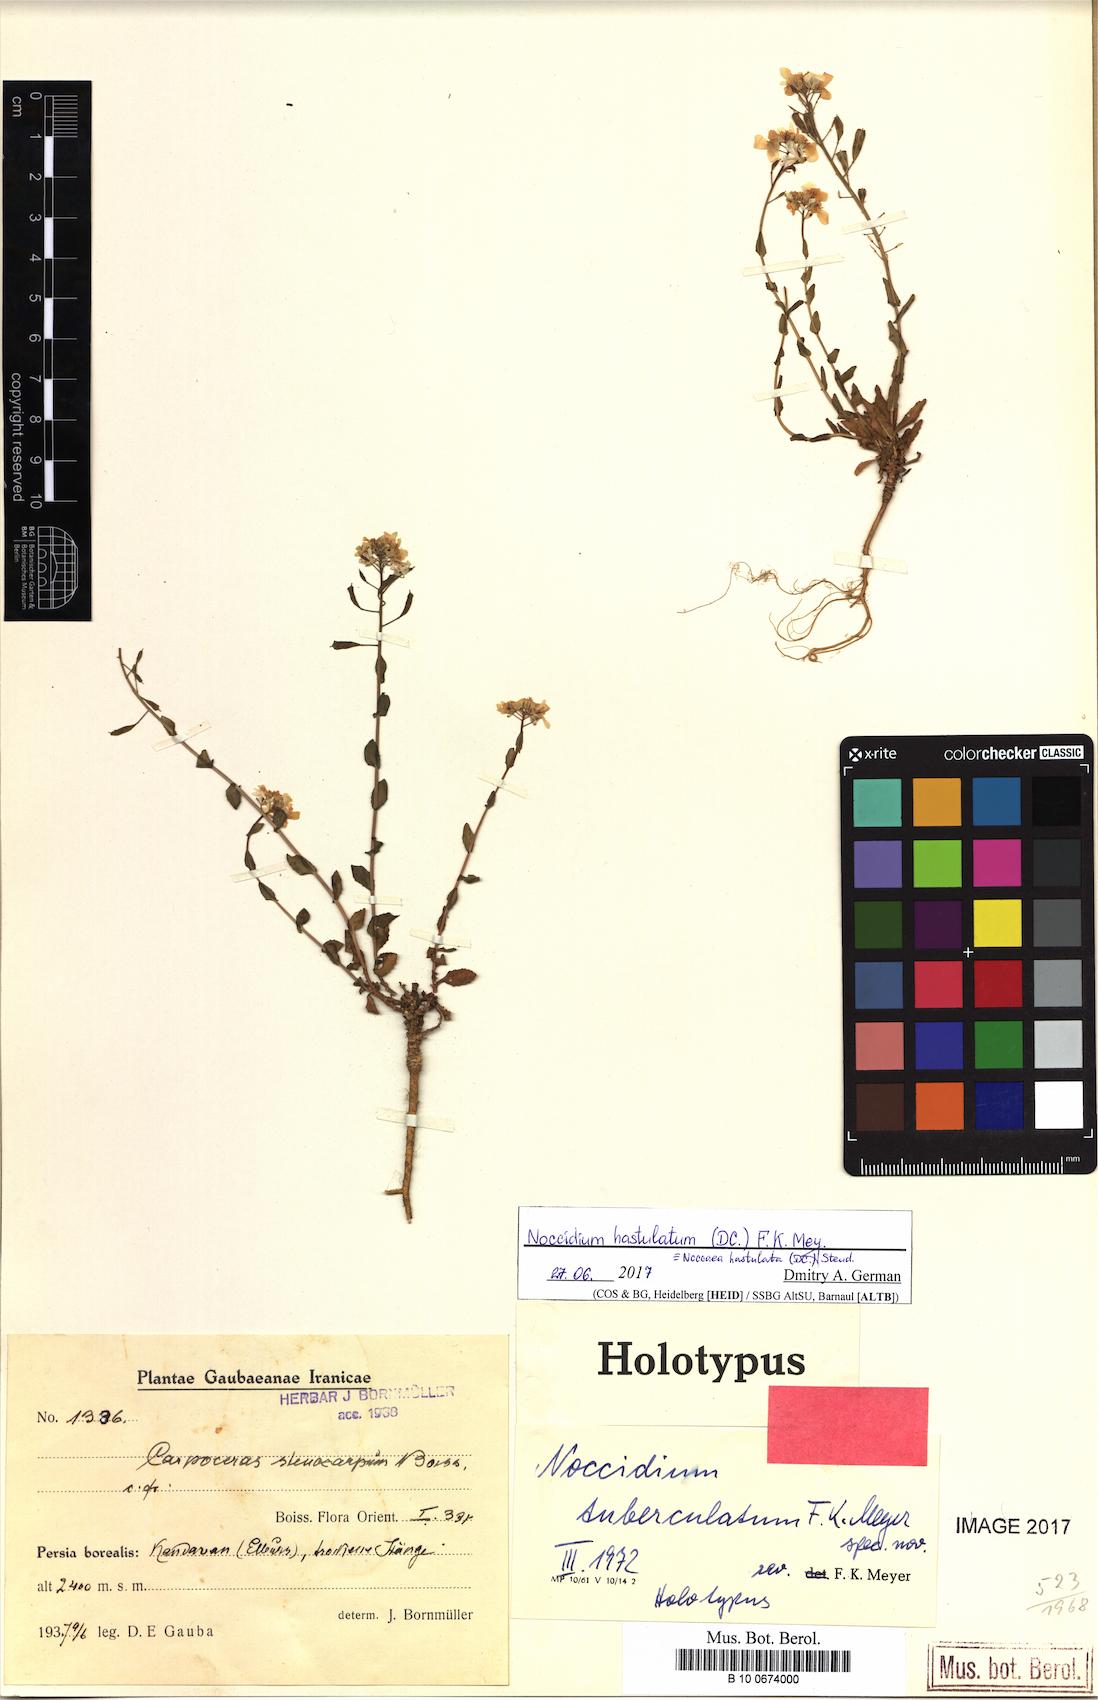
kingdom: Plantae
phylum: Tracheophyta
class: Magnoliopsida
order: Brassicales
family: Brassicaceae
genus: Noccidium
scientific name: Noccidium hastulatum
